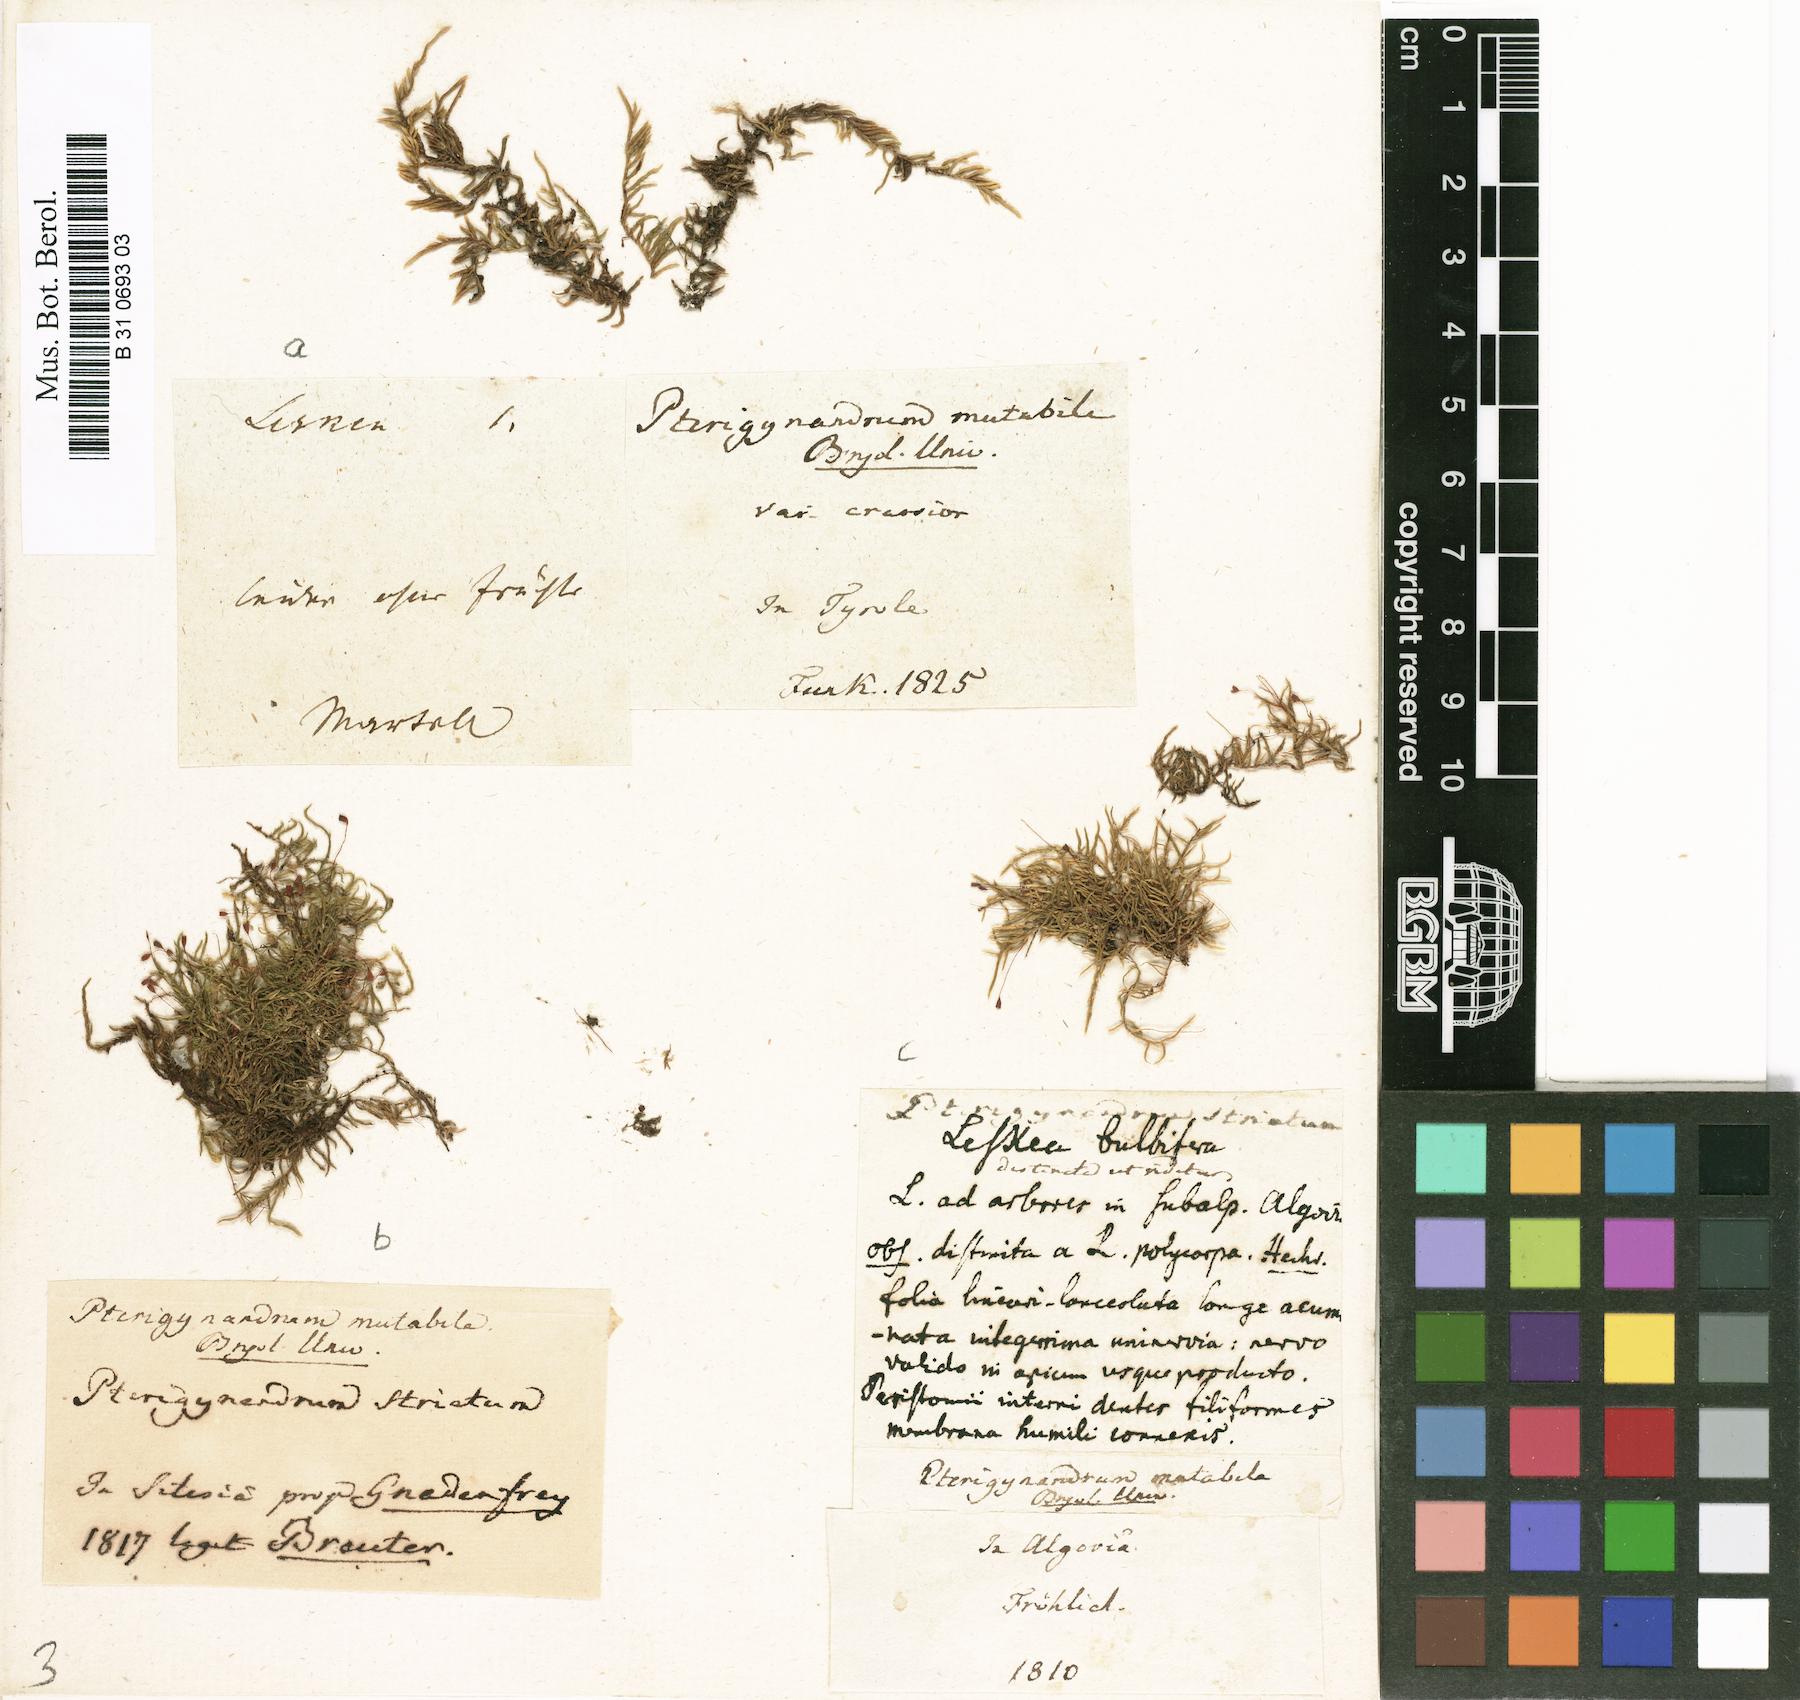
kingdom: Plantae
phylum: Bryophyta
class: Bryopsida
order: Hypnales
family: Pseudoleskeaceae
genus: Lescuraea
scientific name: Lescuraea mutabilis
